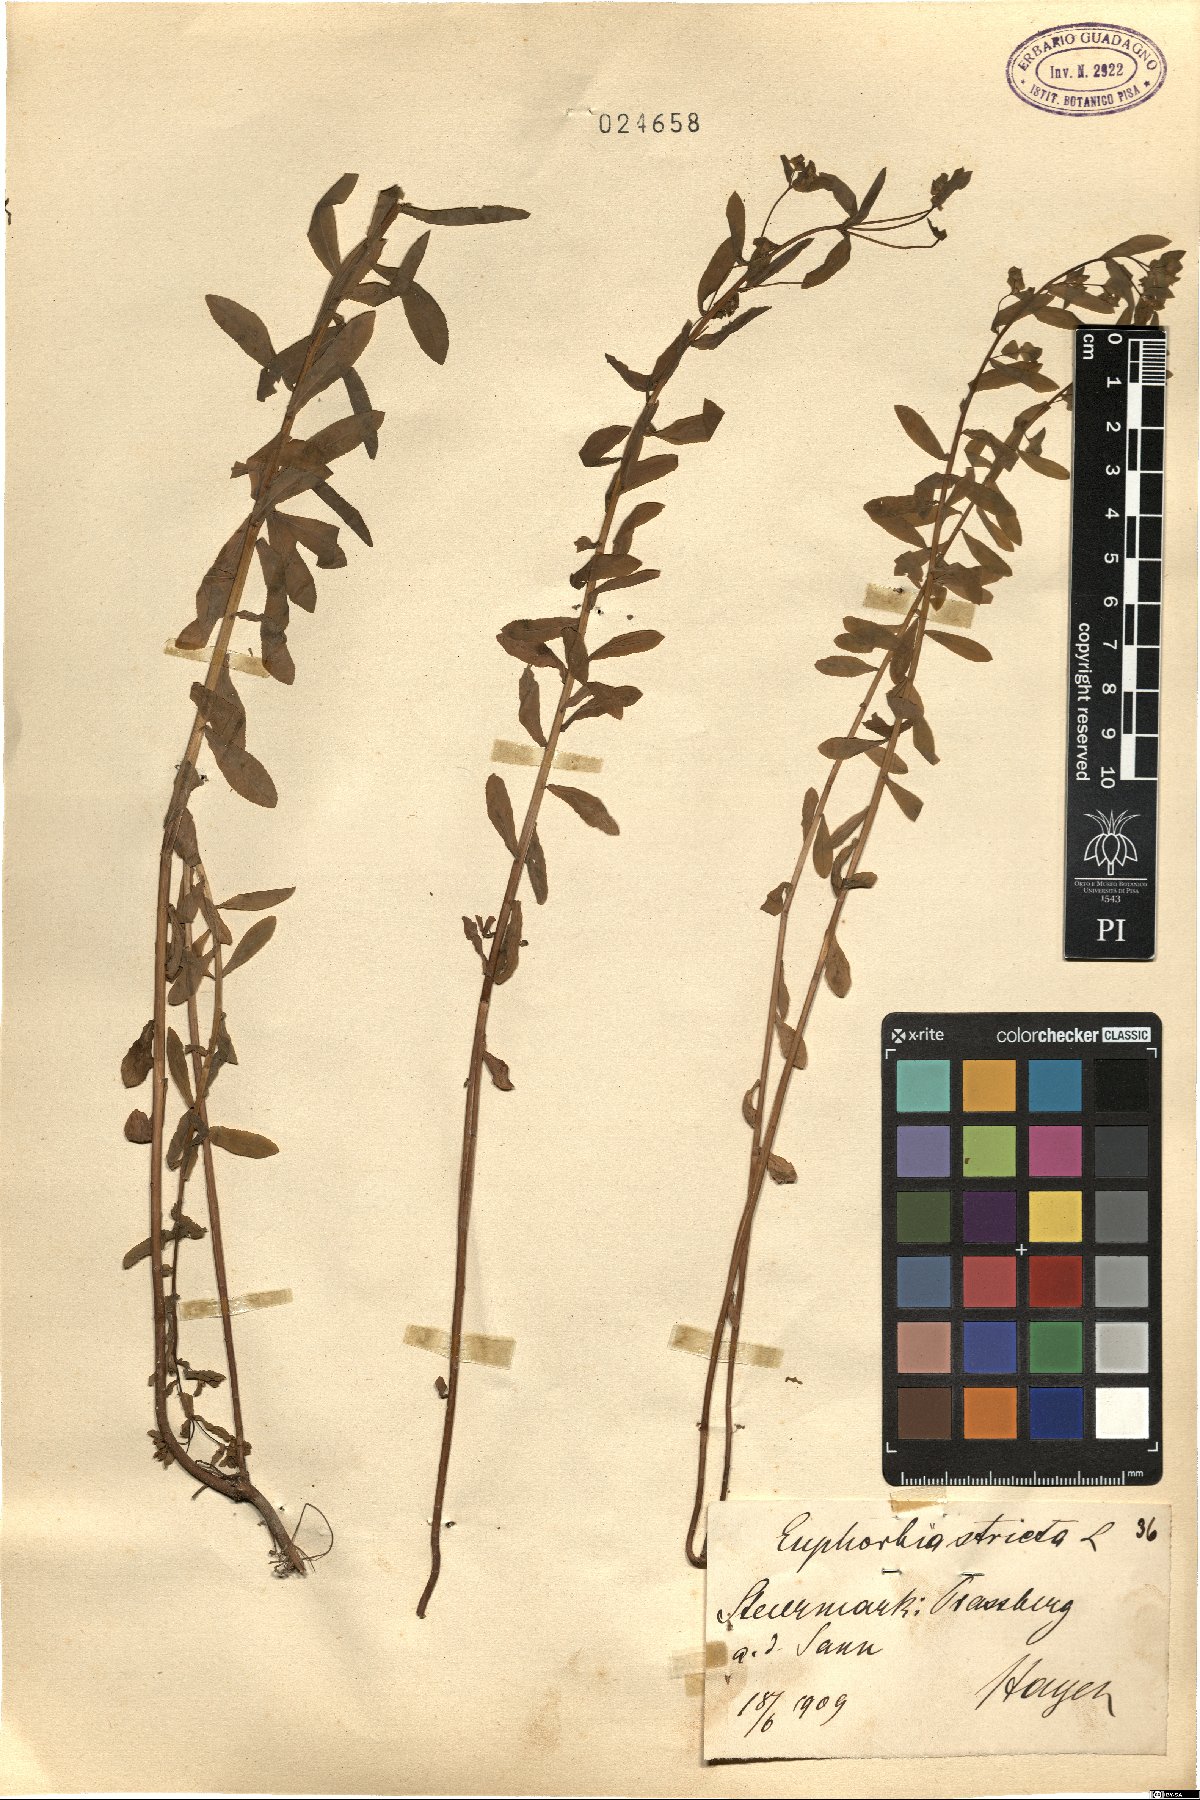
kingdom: Plantae
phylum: Tracheophyta
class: Magnoliopsida
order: Malpighiales
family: Euphorbiaceae
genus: Euphorbia
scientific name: Euphorbia stricta
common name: Upright spurge
